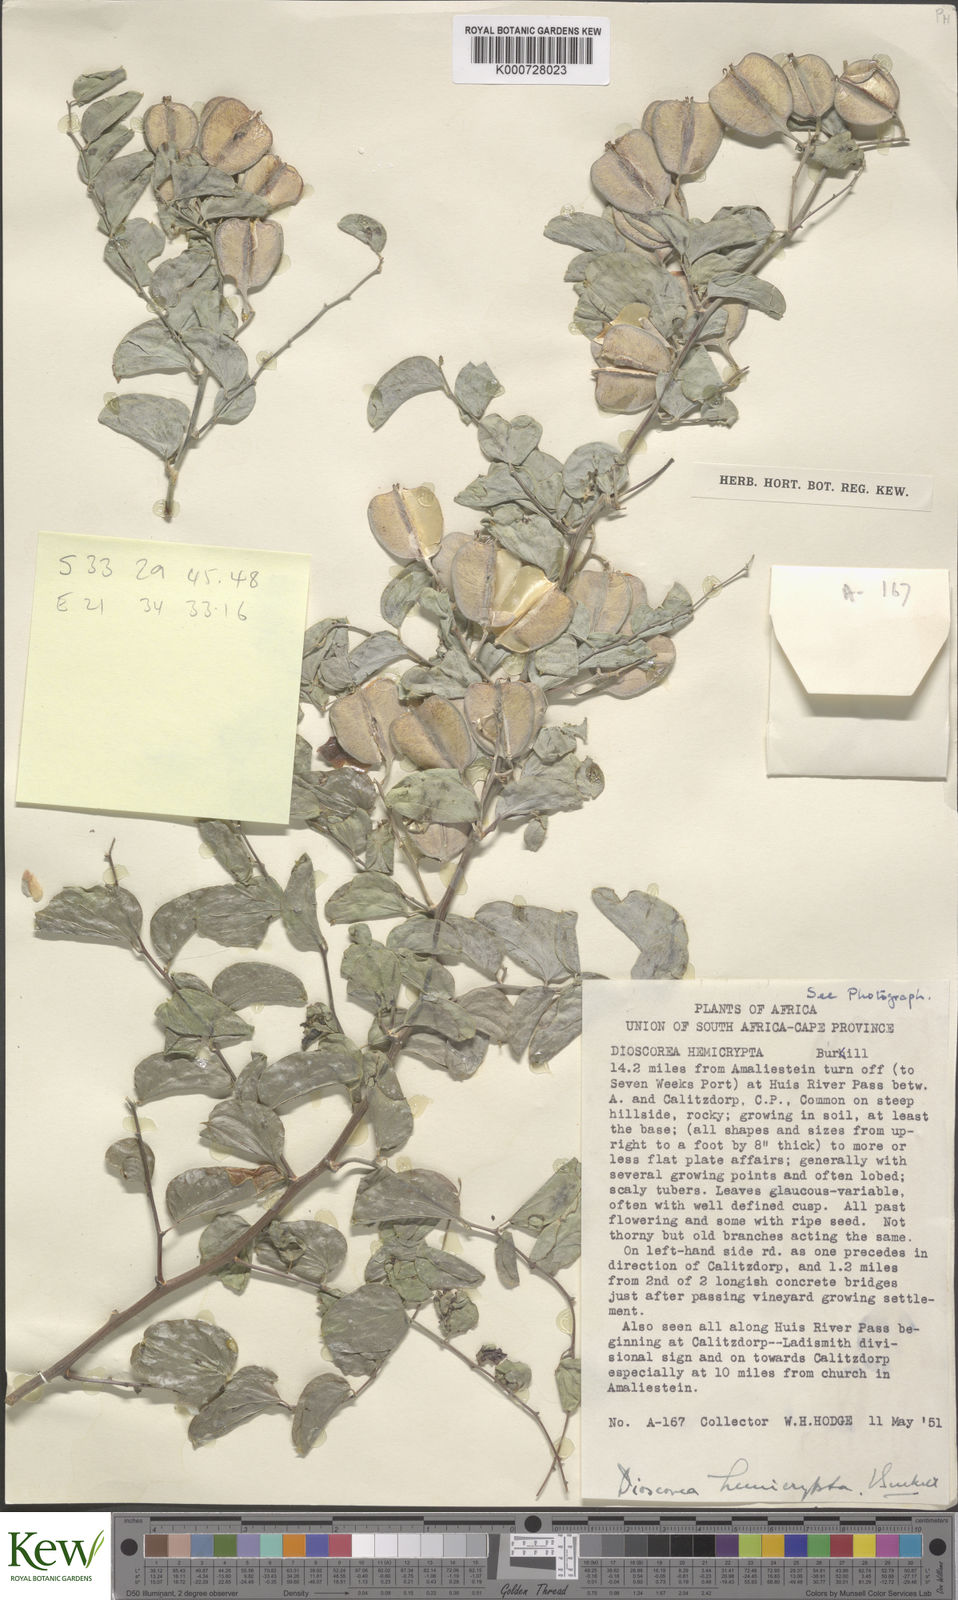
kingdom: Plantae
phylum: Tracheophyta
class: Liliopsida
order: Dioscoreales
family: Dioscoreaceae
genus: Dioscorea
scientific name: Dioscorea hemicrypta
